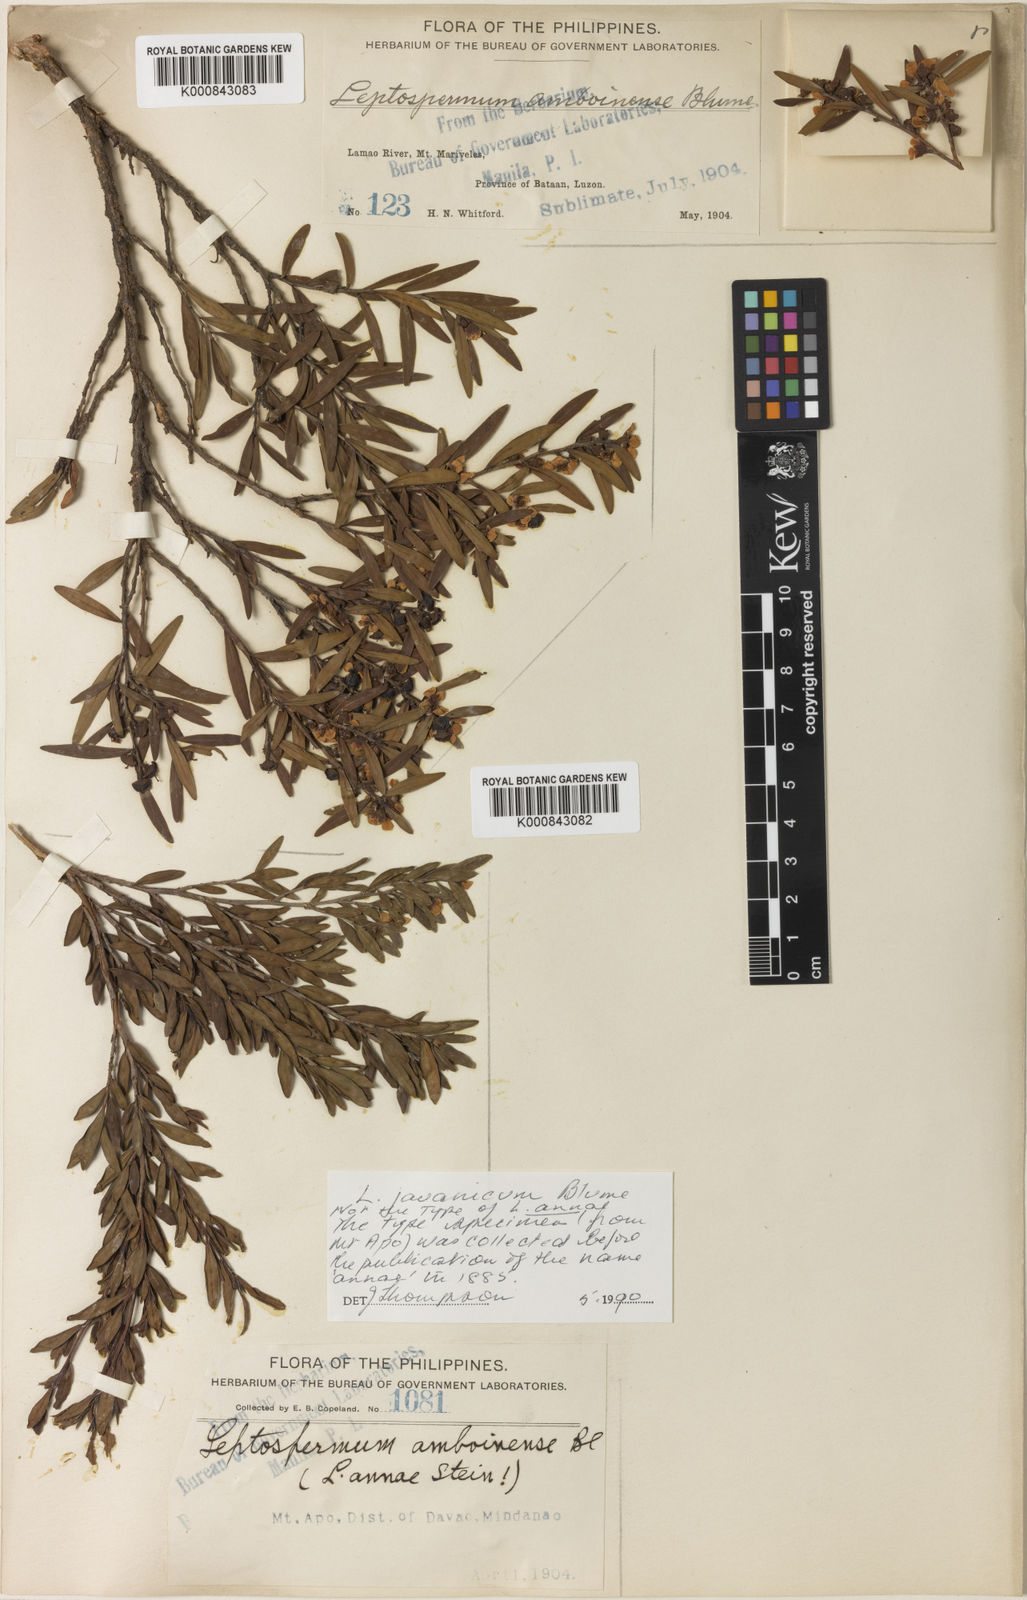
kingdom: Plantae
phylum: Tracheophyta
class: Magnoliopsida
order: Myrtales
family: Myrtaceae
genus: Leptospermum
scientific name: Leptospermum javanicum
